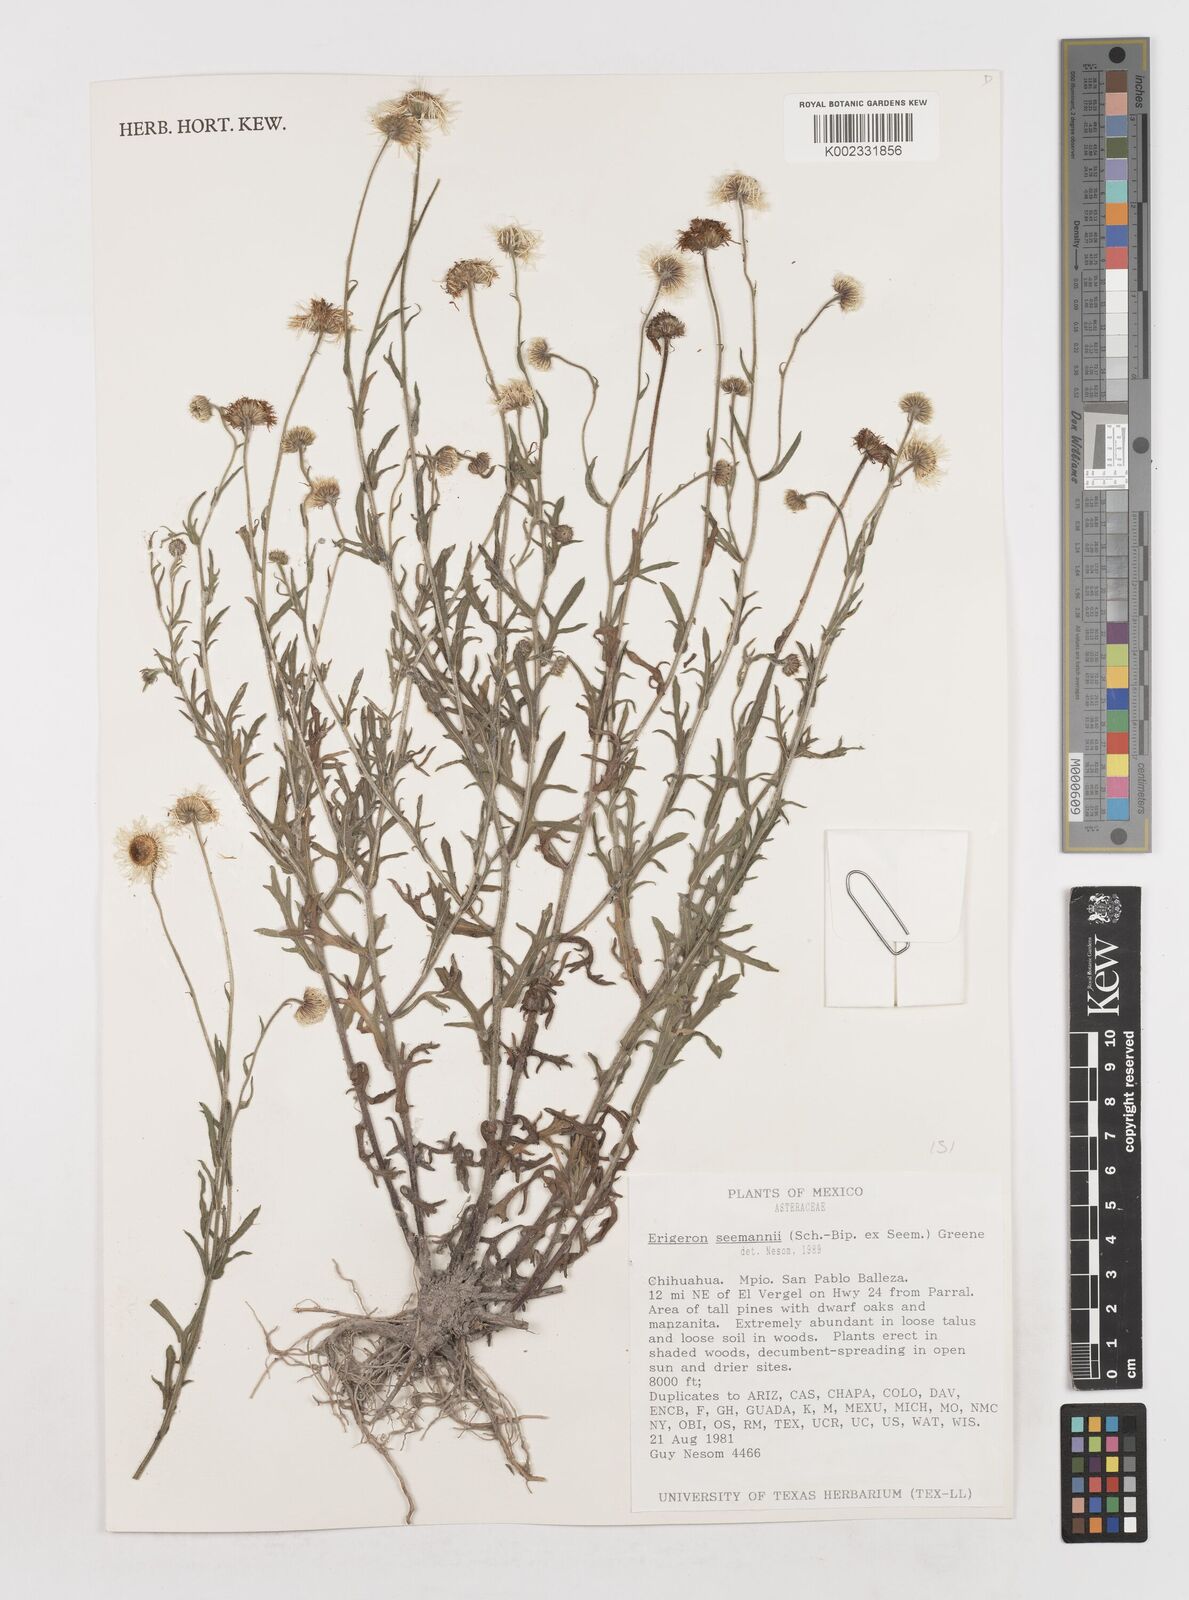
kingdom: Plantae
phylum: Tracheophyta
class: Magnoliopsida
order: Asterales
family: Asteraceae
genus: Erigeron
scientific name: Erigeron seemannii
